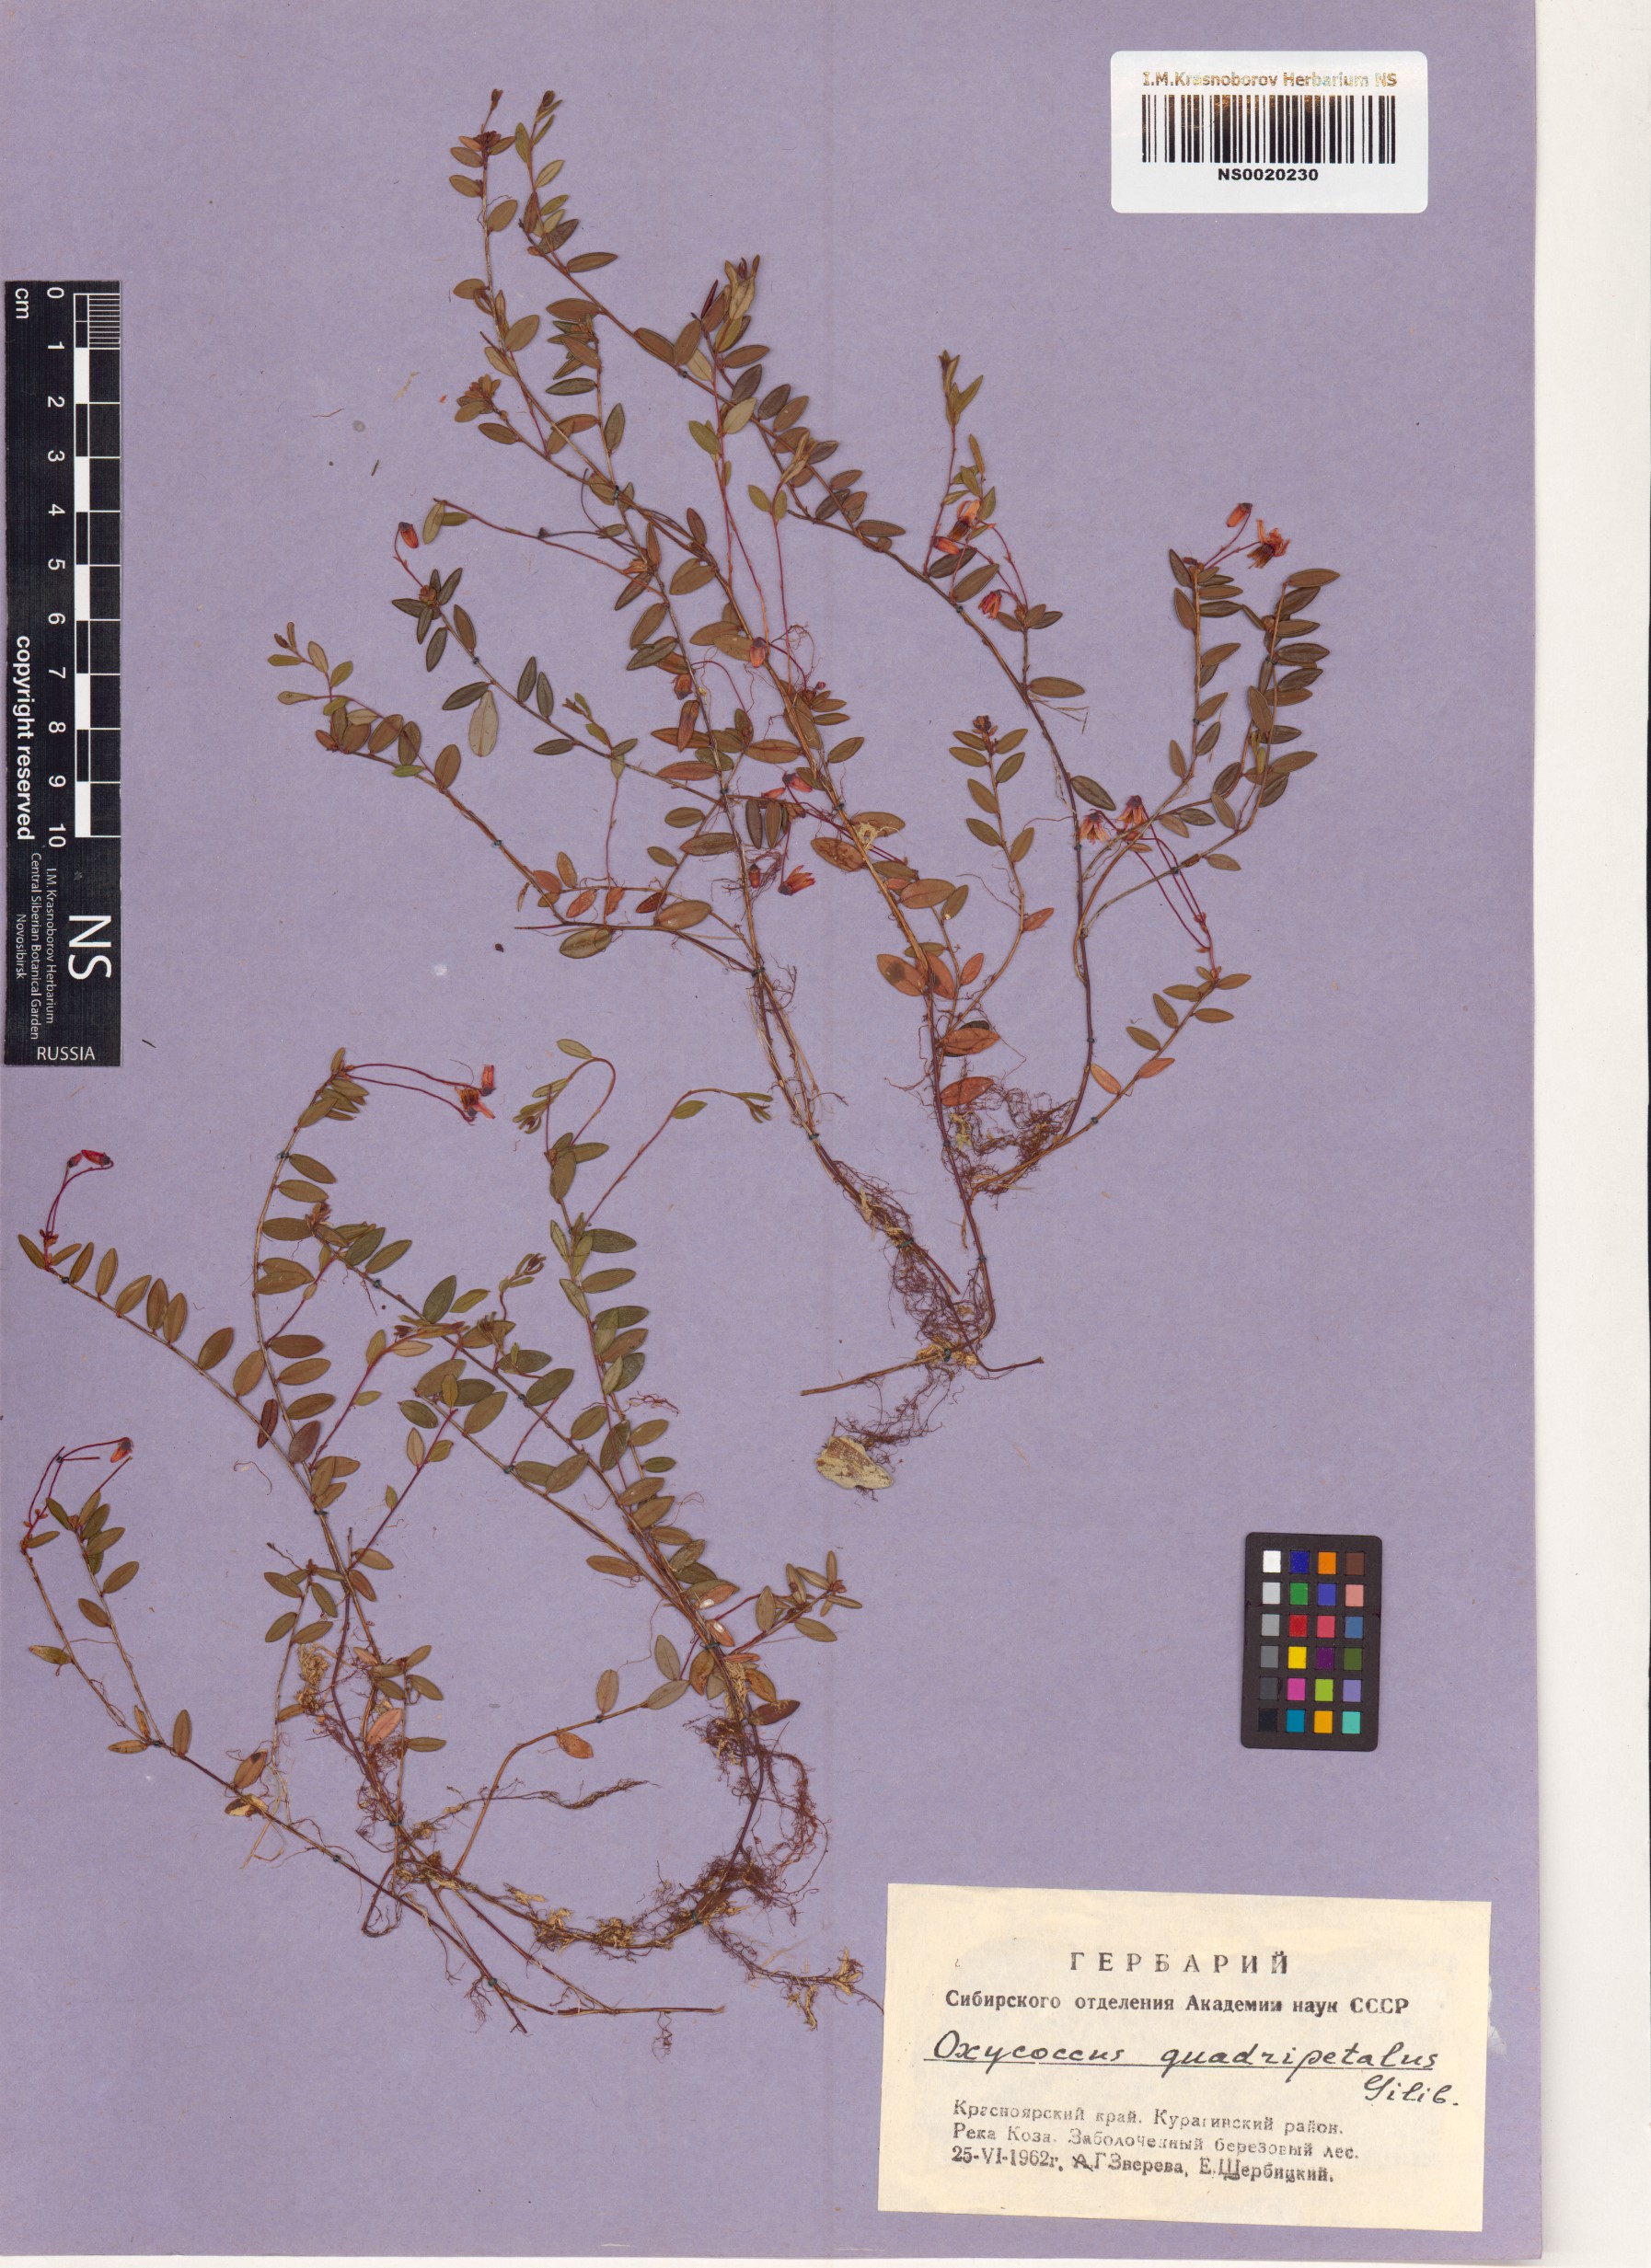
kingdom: Plantae
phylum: Tracheophyta
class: Magnoliopsida
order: Ericales
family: Ericaceae
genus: Vaccinium
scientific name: Vaccinium oxycoccos
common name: Cranberry
